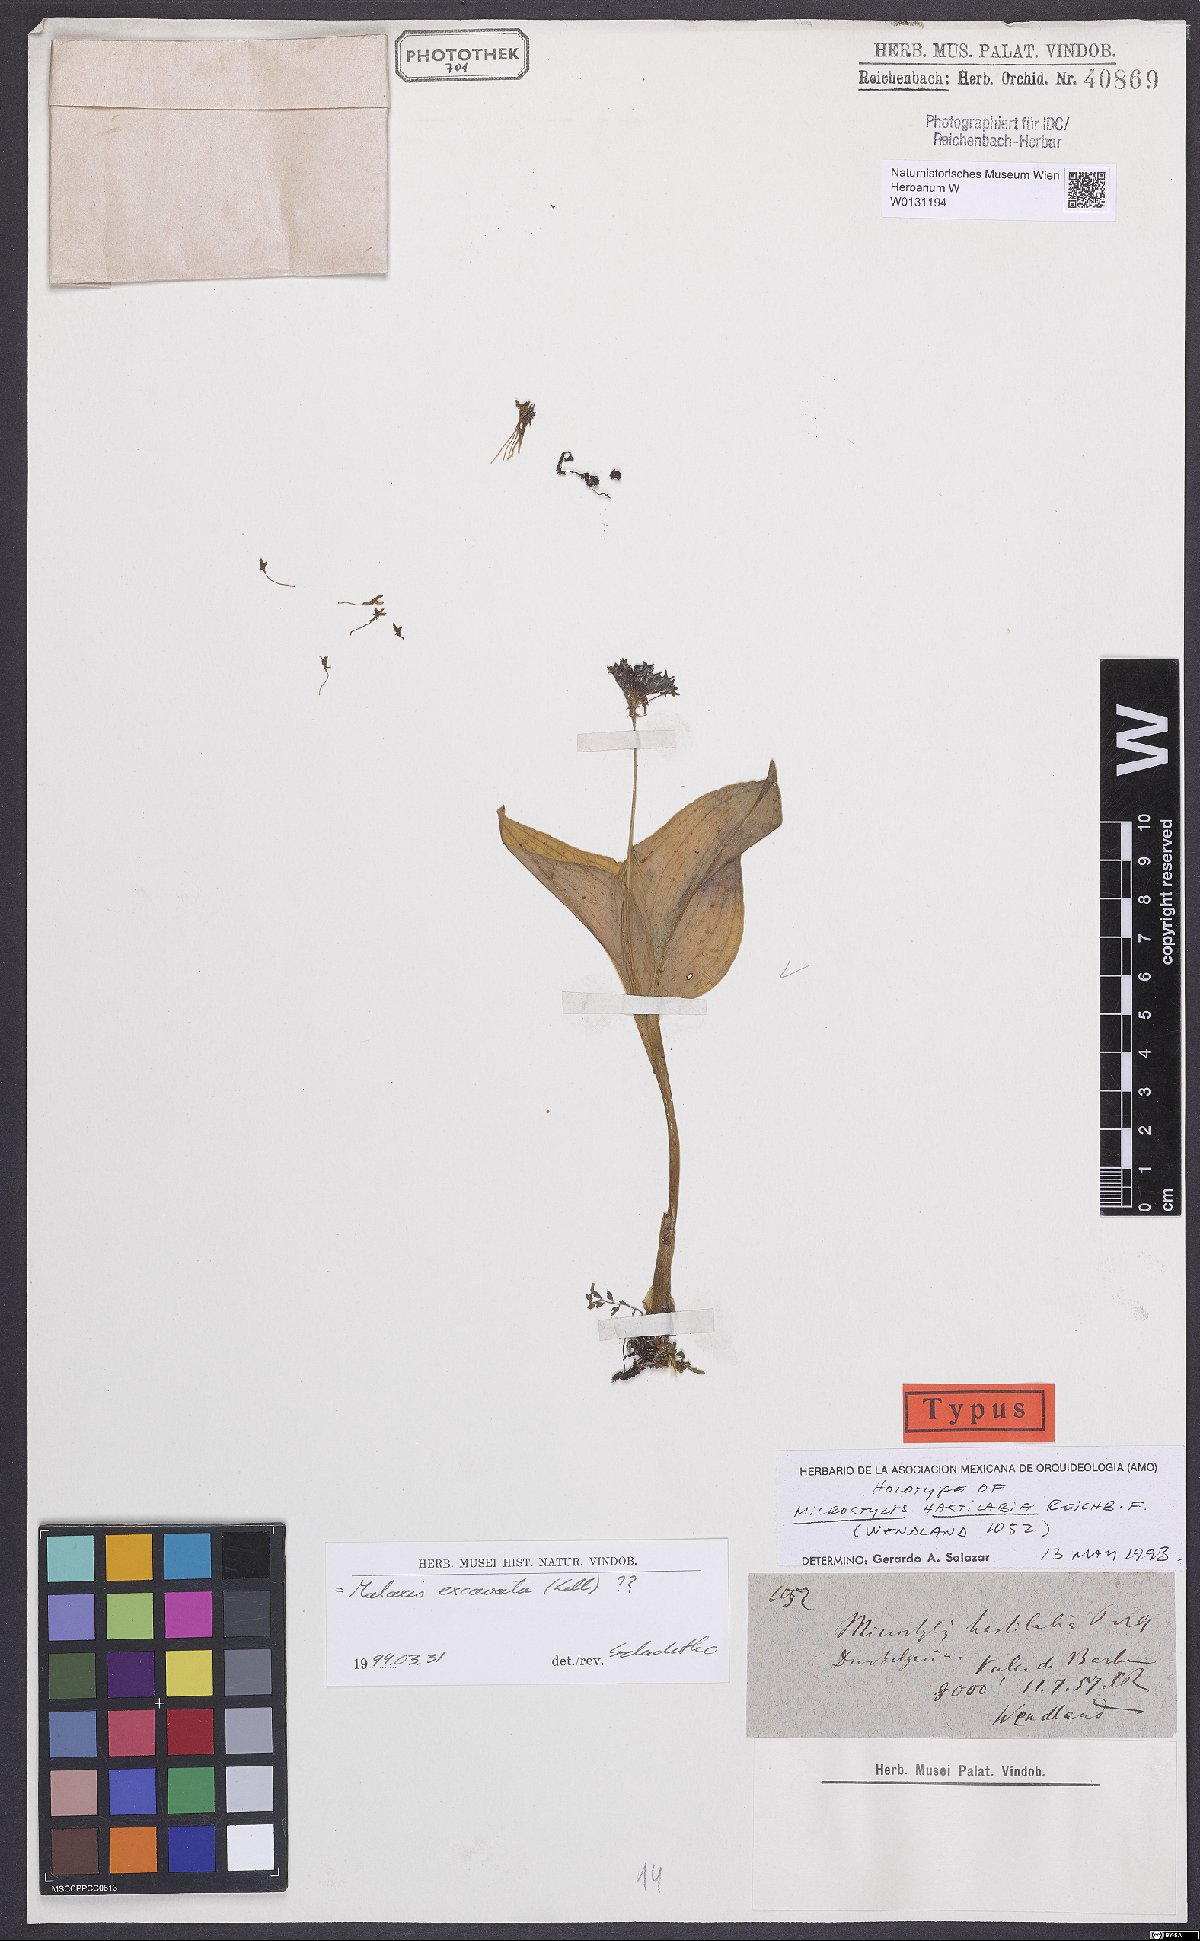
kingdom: Plantae
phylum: Tracheophyta
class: Liliopsida
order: Asparagales
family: Orchidaceae
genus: Malaxis
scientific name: Malaxis excavata
